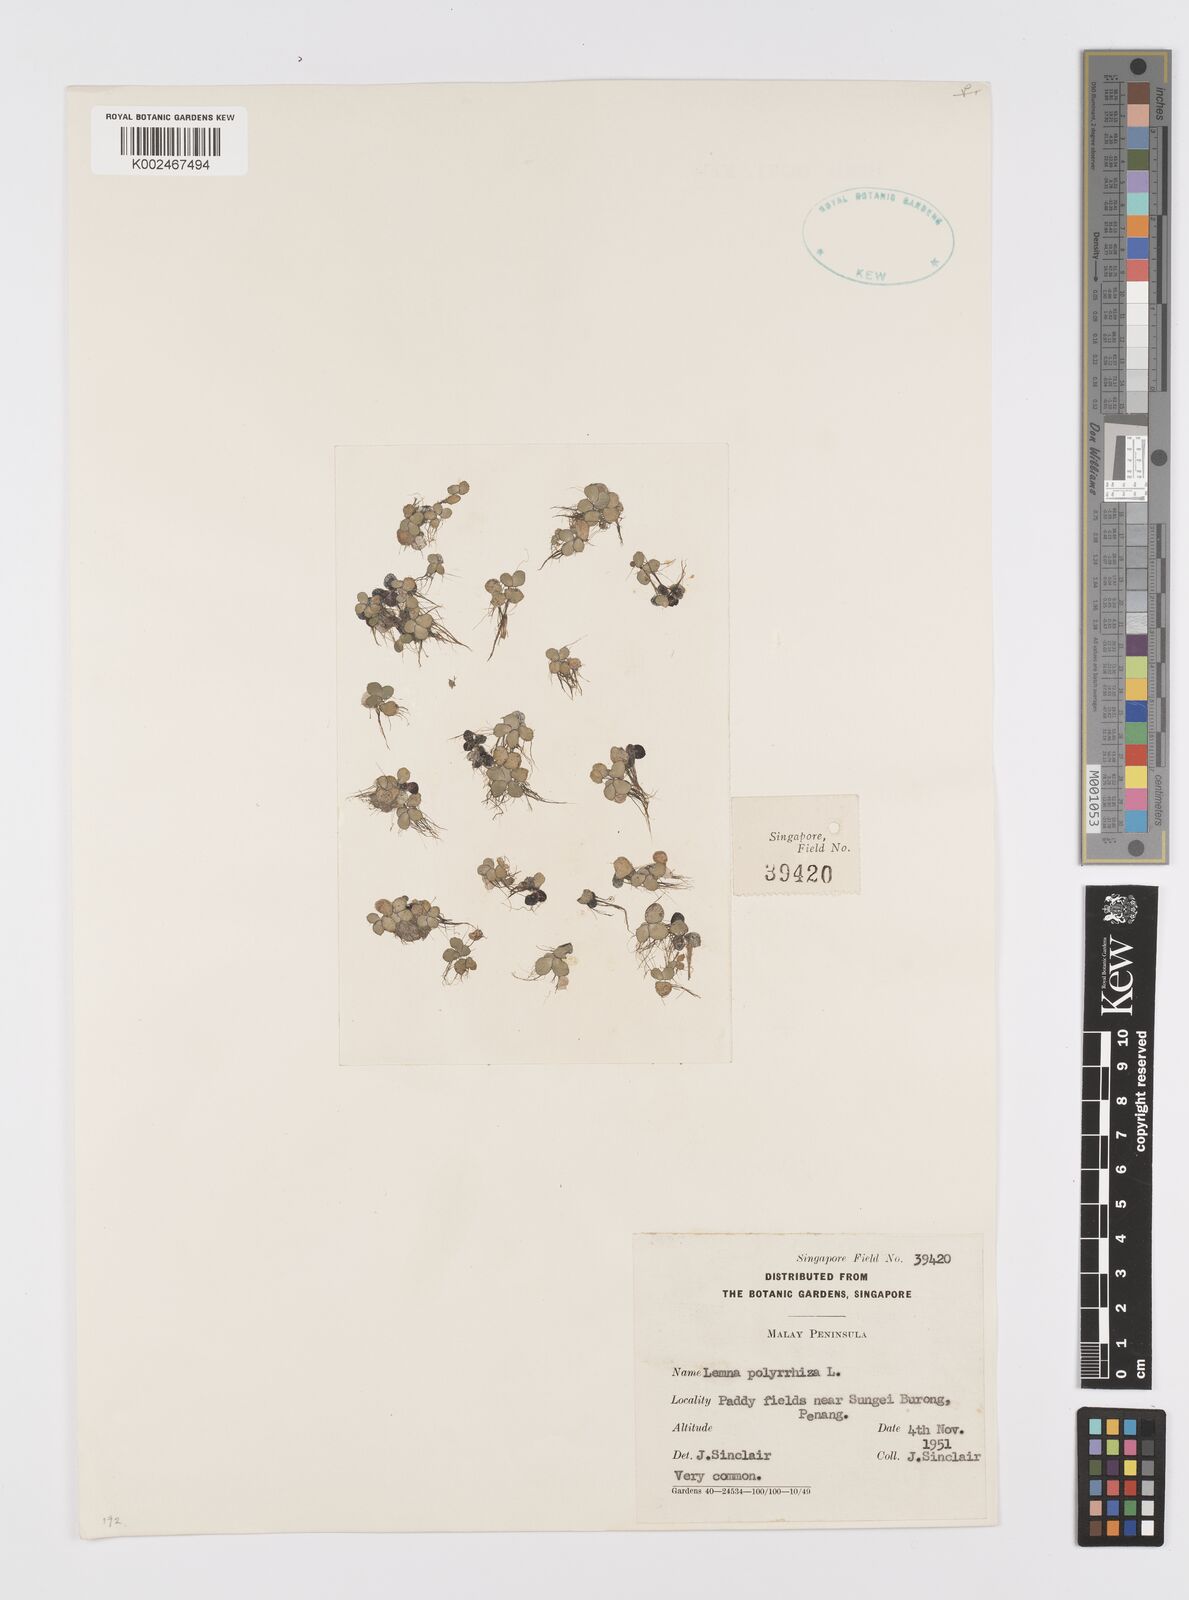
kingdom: Plantae
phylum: Tracheophyta
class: Liliopsida
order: Alismatales
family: Araceae
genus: Spirodela
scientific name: Spirodela polyrhiza
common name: Great duckweed
